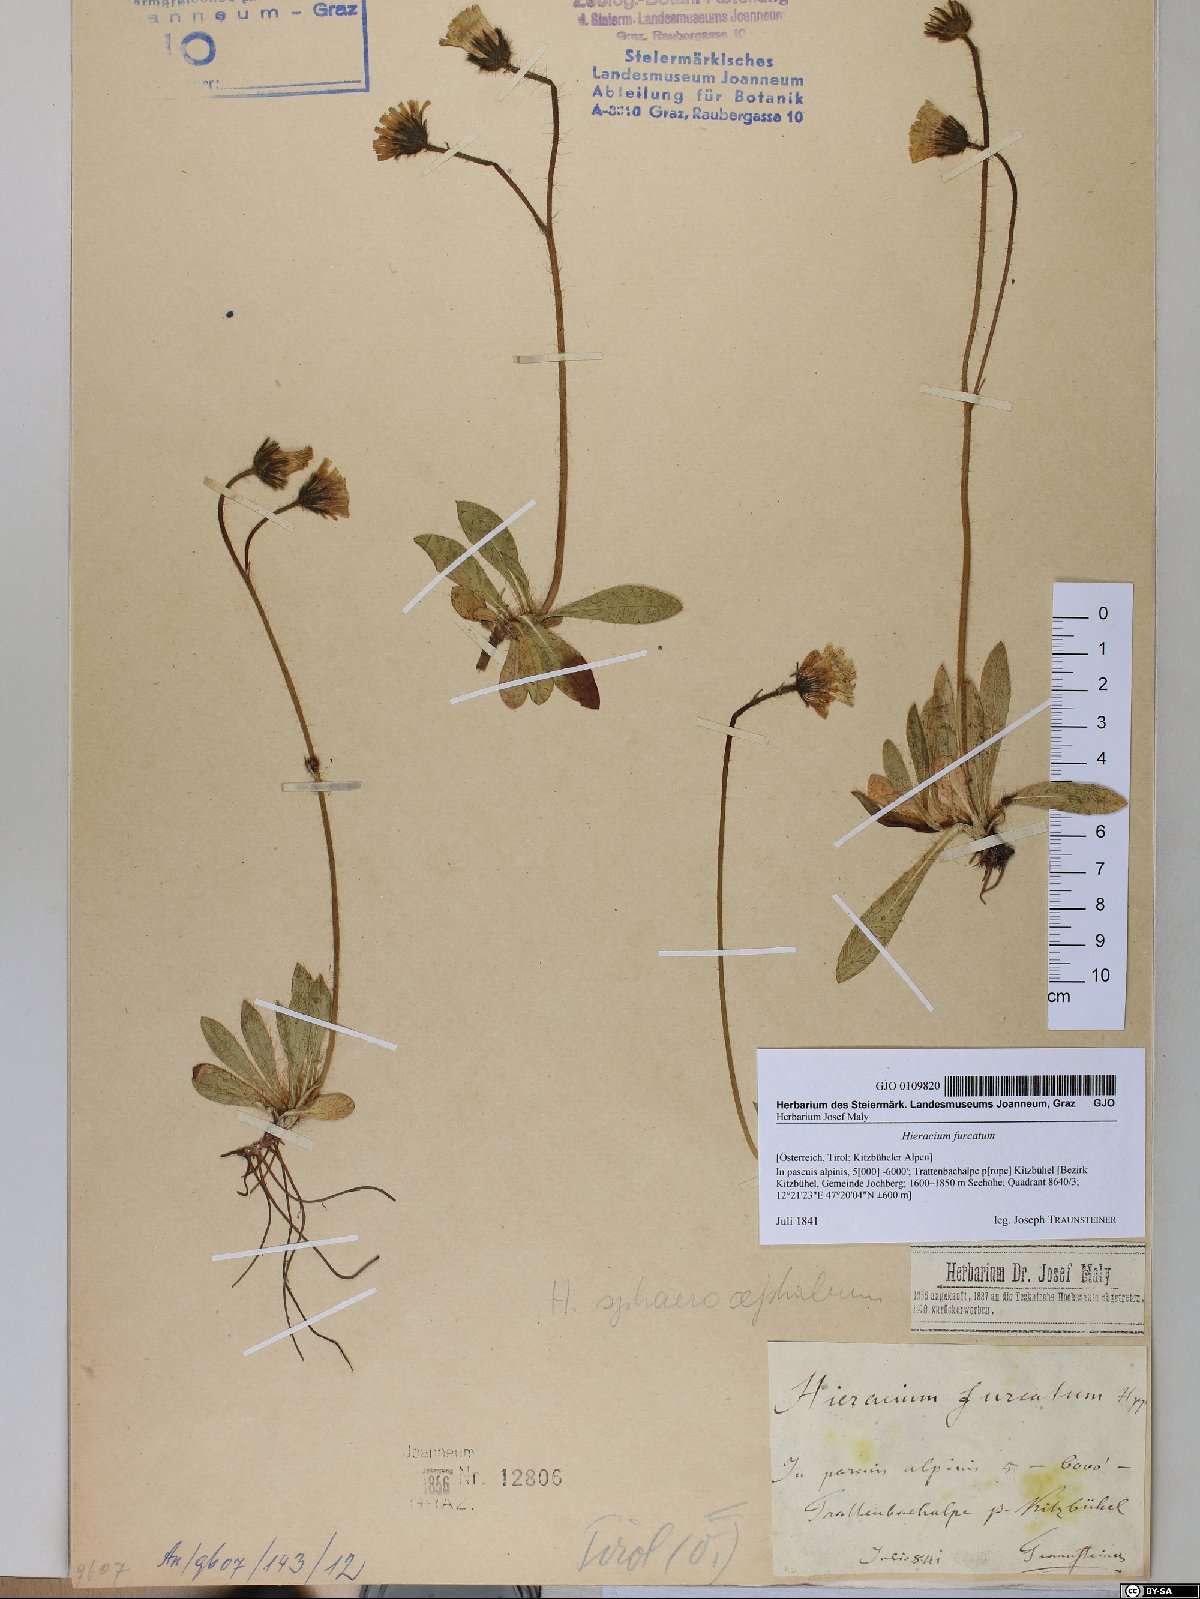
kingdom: Plantae
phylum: Tracheophyta
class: Magnoliopsida
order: Asterales
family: Asteraceae
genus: Pilosella
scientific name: Pilosella sphaerocephala
